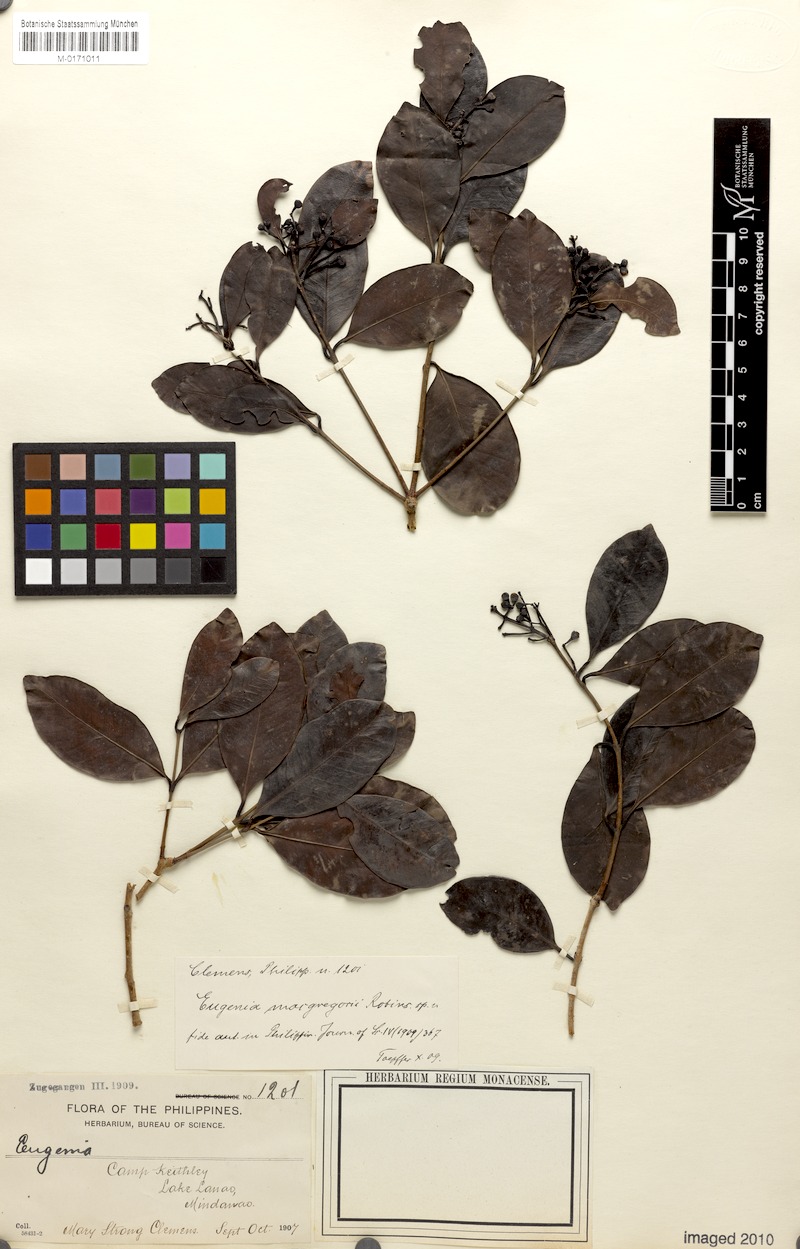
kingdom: Plantae
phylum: Tracheophyta
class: Magnoliopsida
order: Myrtales
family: Myrtaceae
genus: Syzygium
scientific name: Syzygium macgregorii
